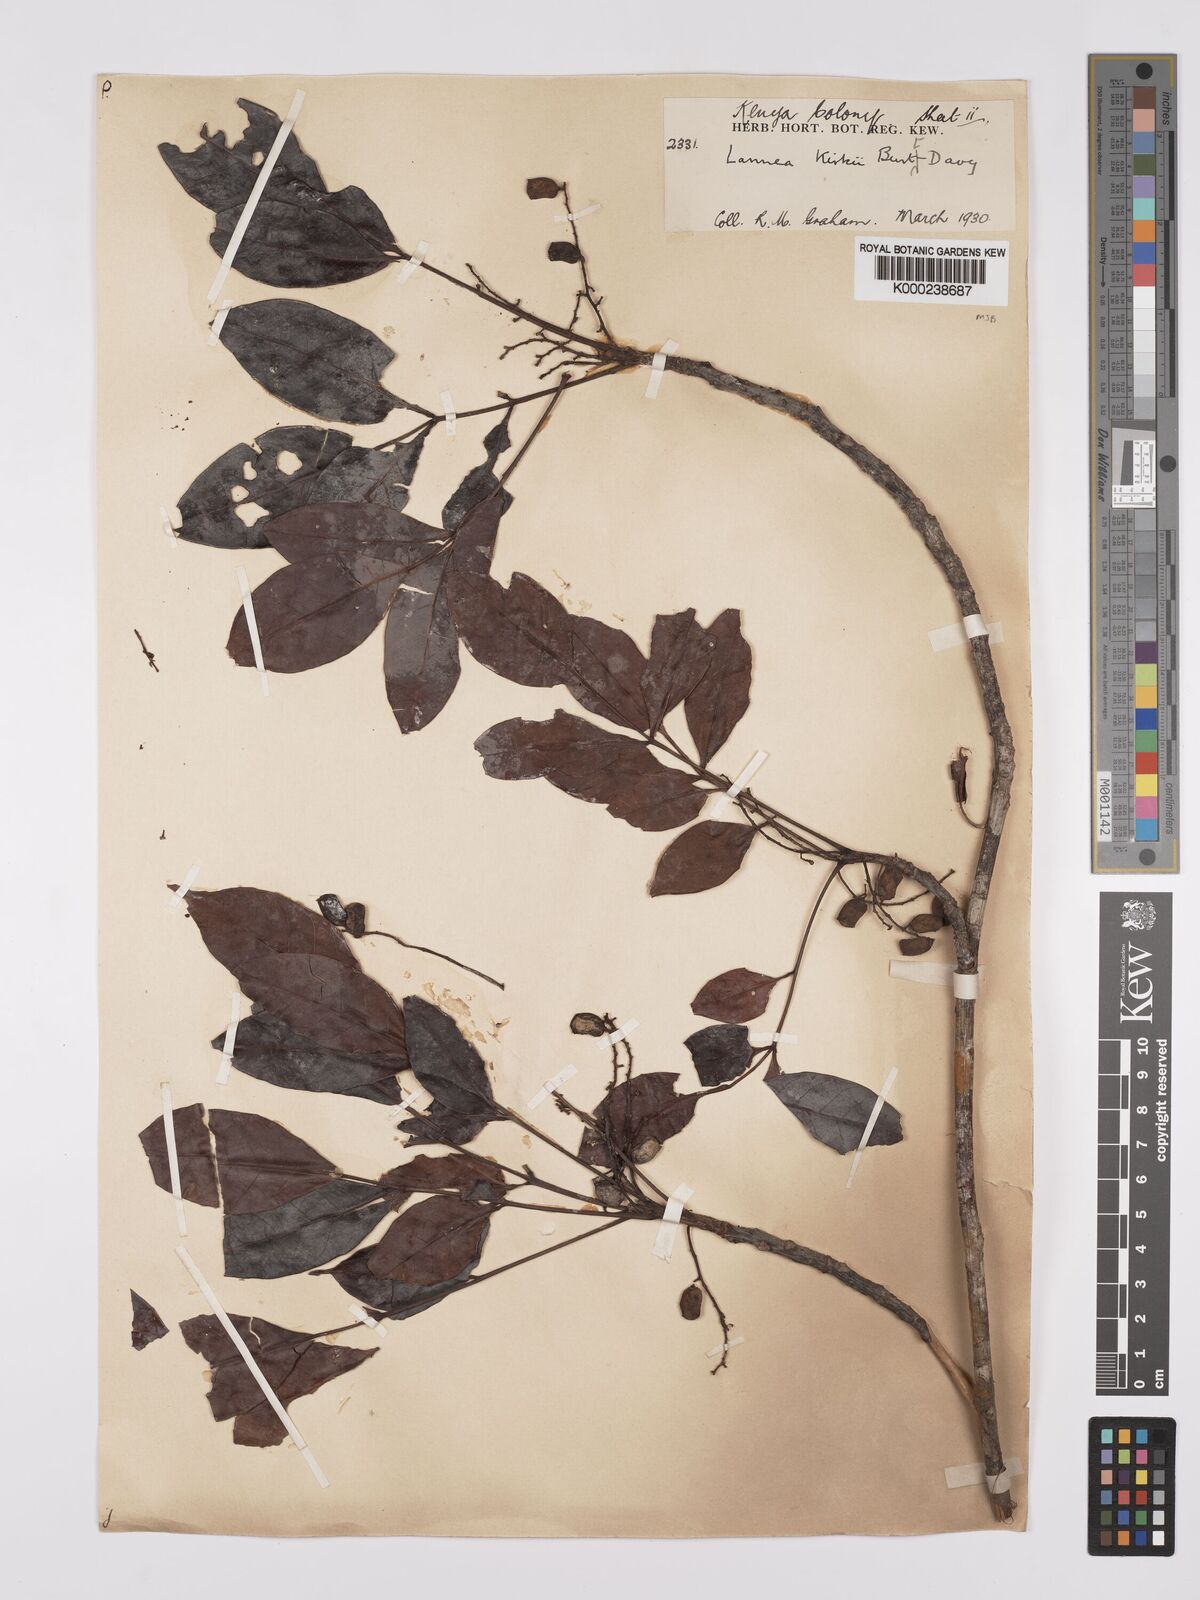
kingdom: Plantae
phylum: Tracheophyta
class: Magnoliopsida
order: Sapindales
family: Anacardiaceae
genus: Lannea
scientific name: Lannea schweinfurthii
